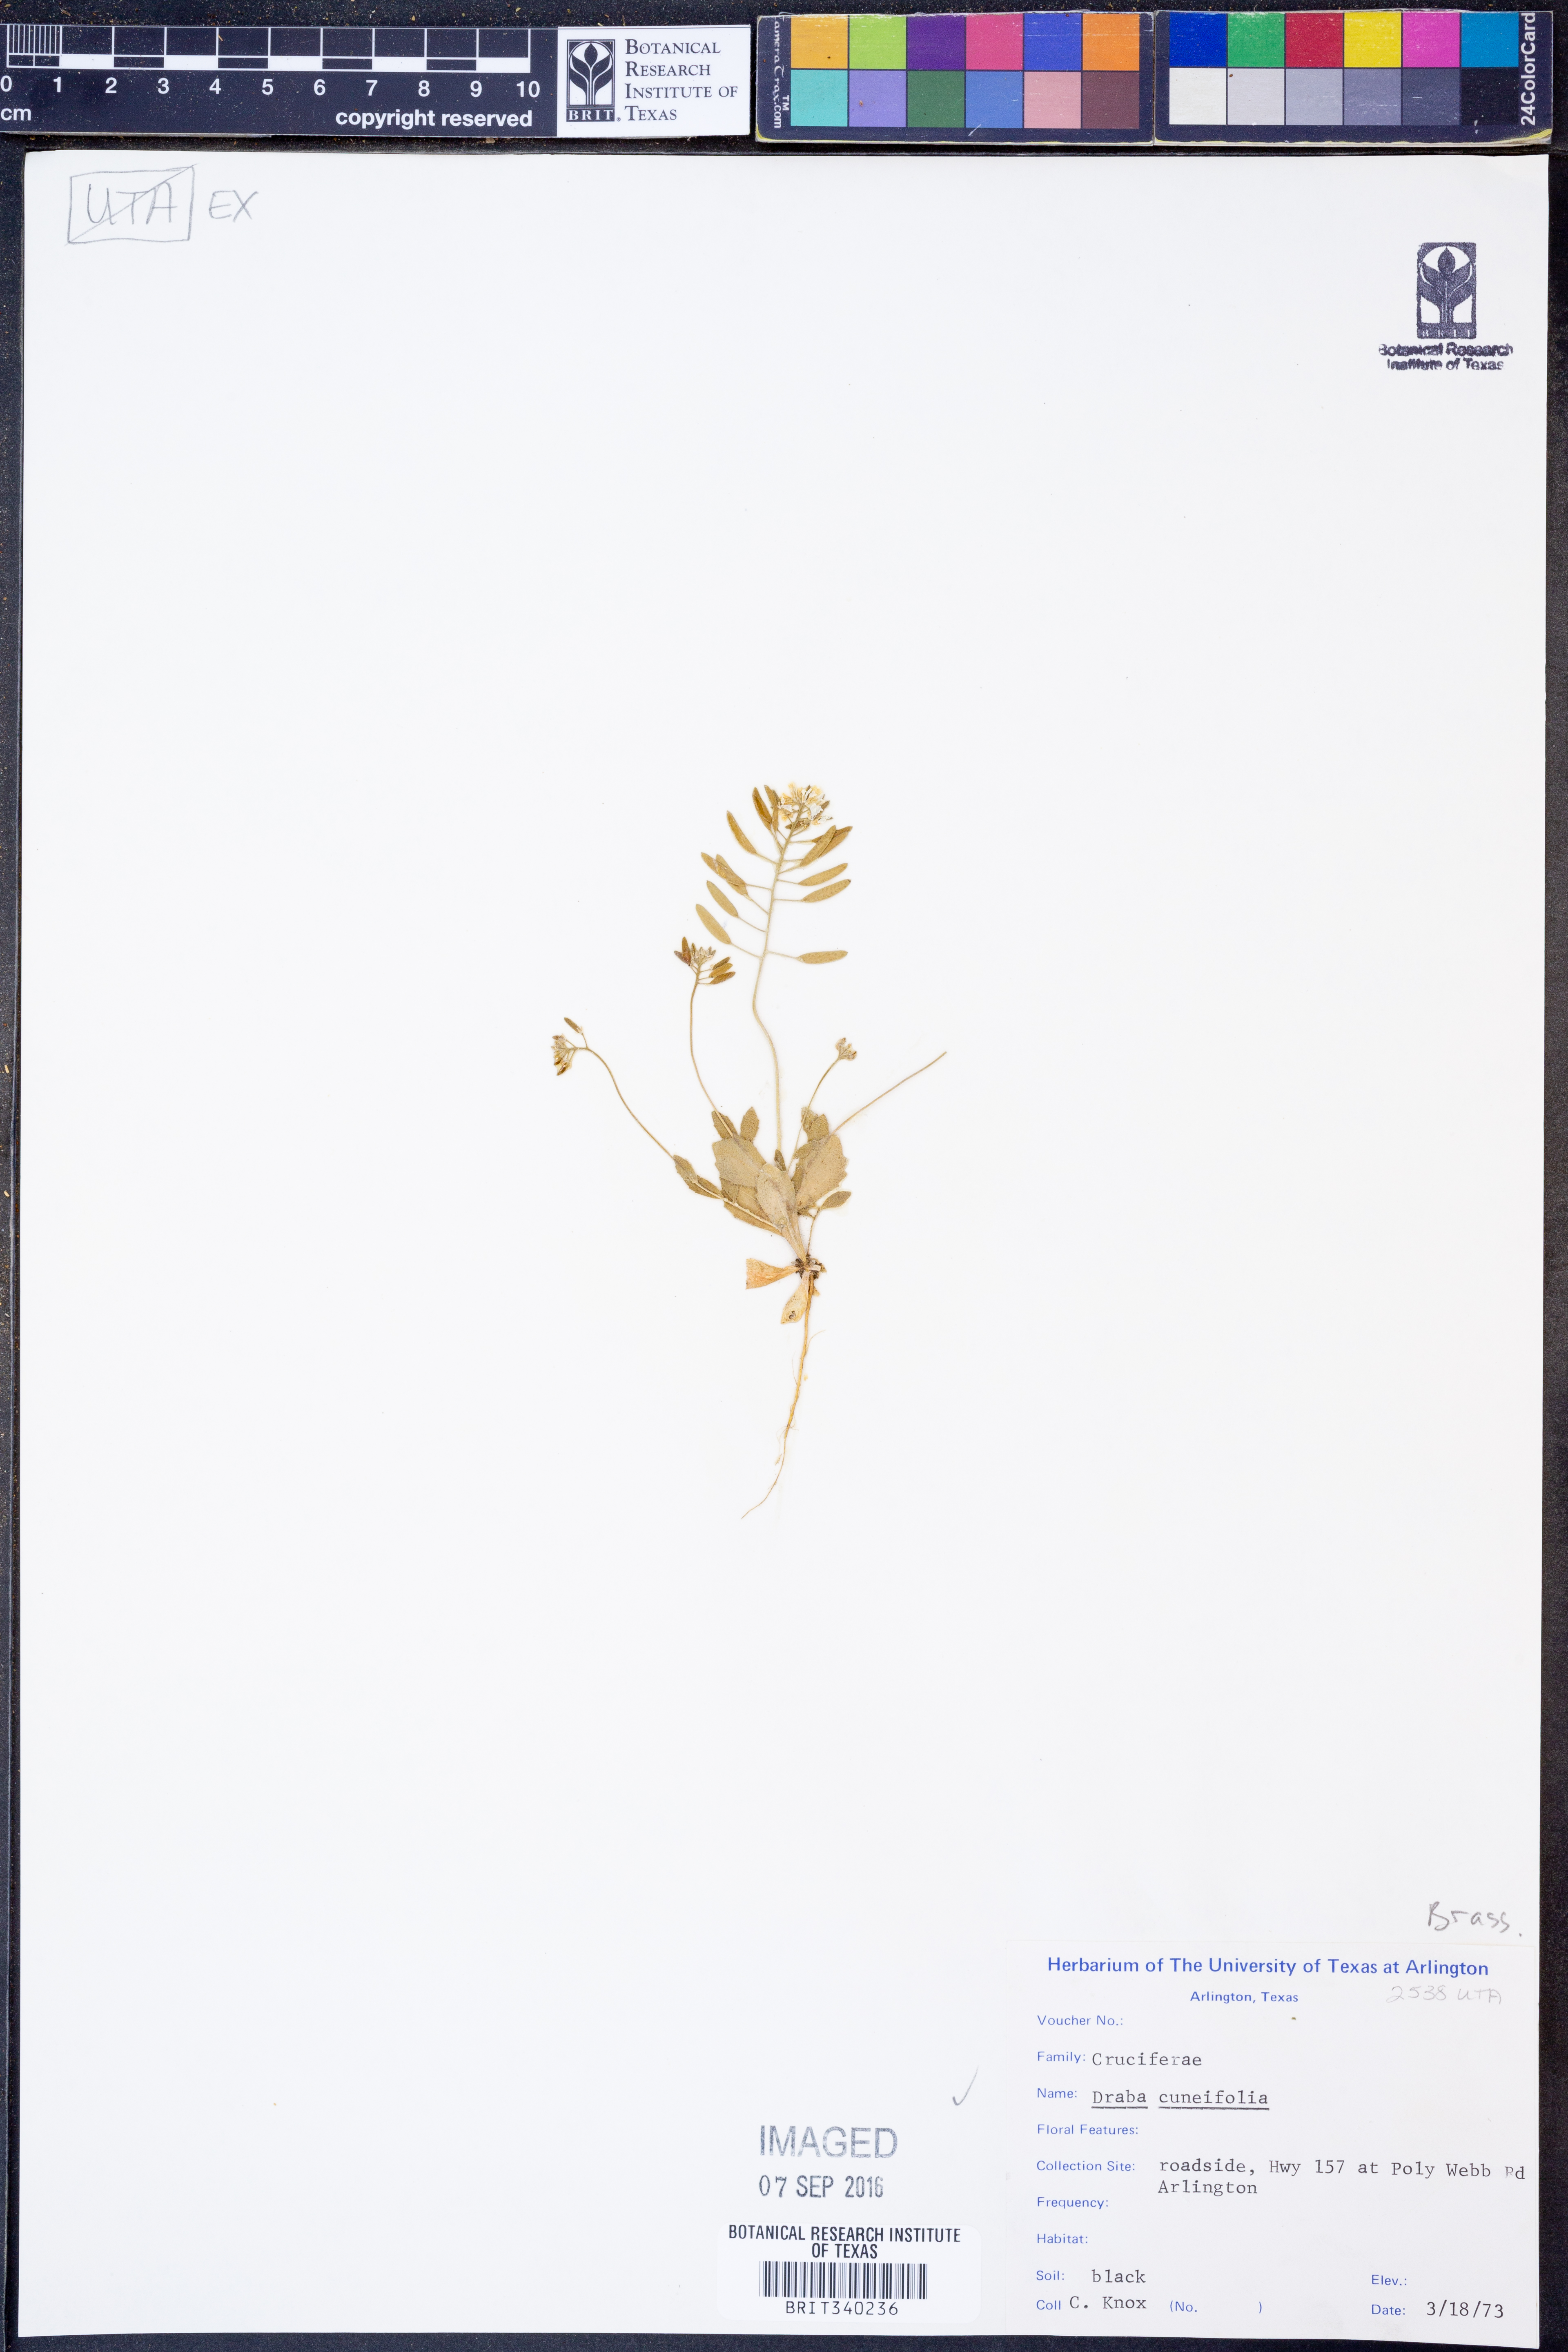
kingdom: Plantae
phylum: Tracheophyta
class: Magnoliopsida
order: Brassicales
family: Brassicaceae
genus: Tomostima
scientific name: Tomostima cuneifolia
